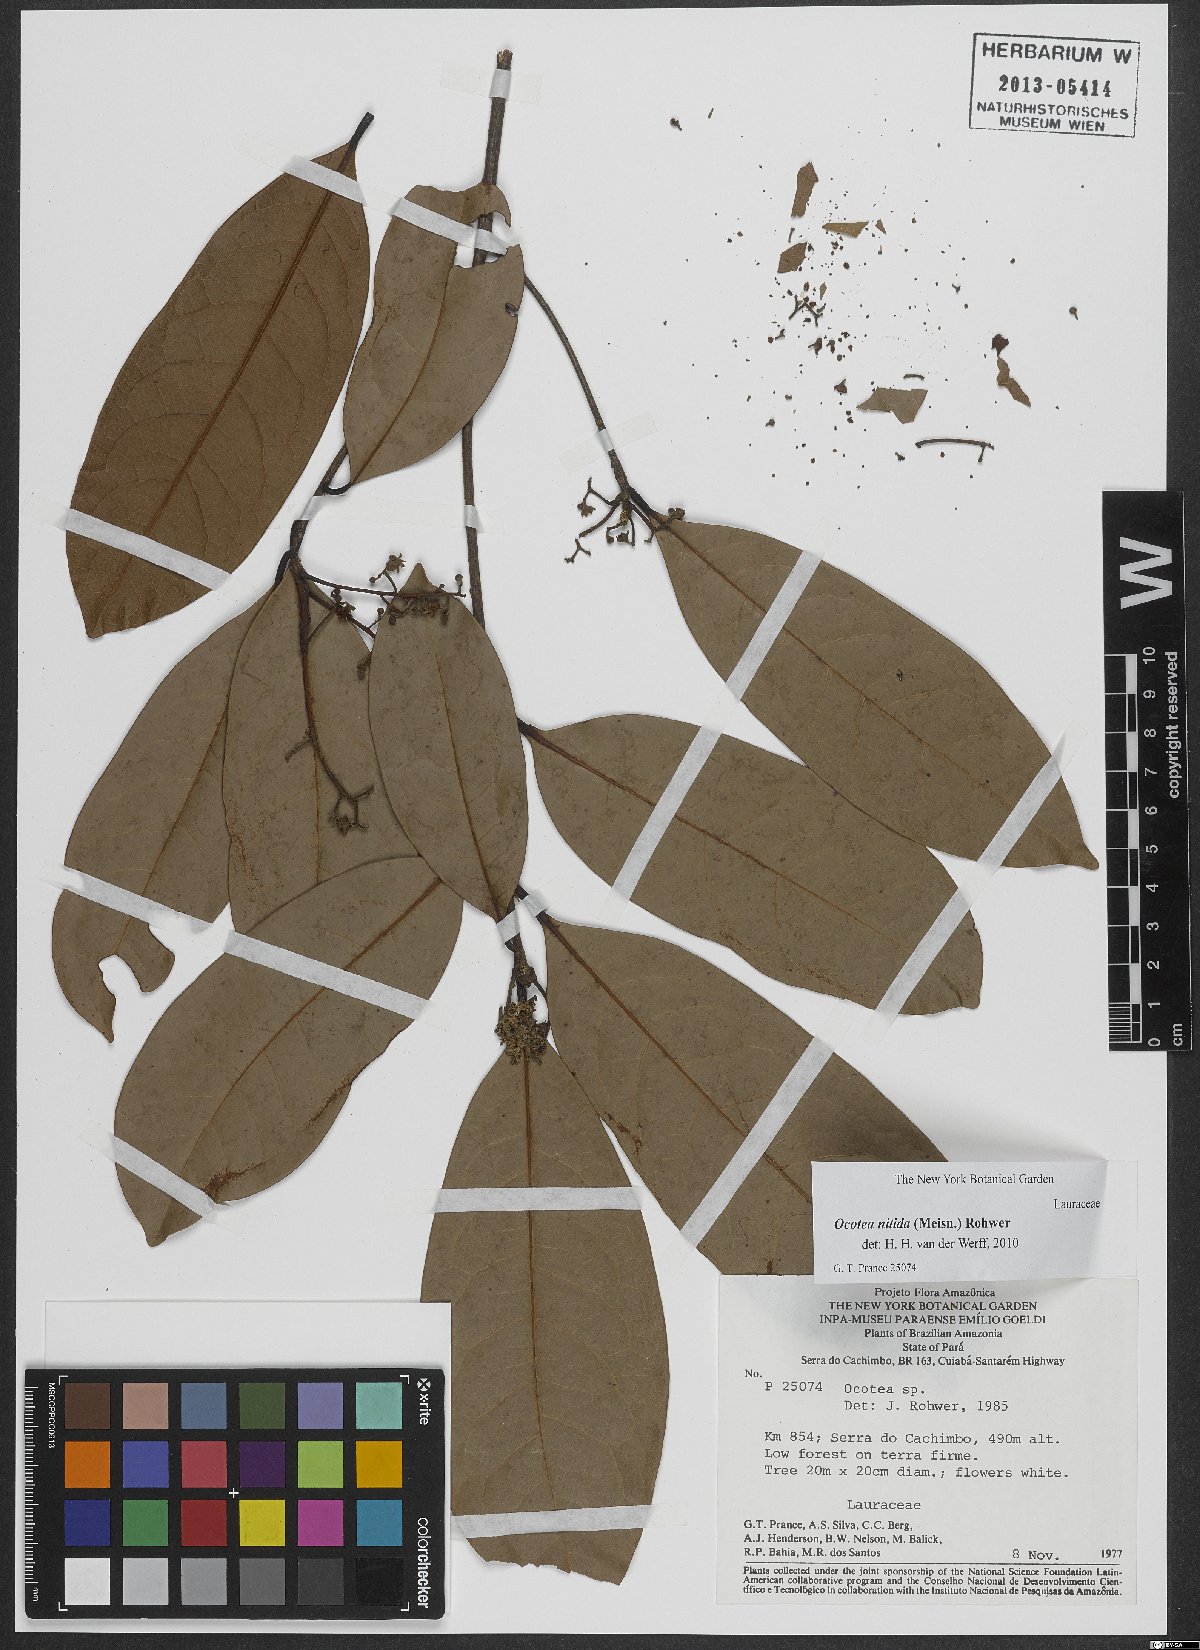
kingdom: Plantae
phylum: Tracheophyta
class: Magnoliopsida
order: Laurales
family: Lauraceae
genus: Ocotea
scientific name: Ocotea nitida
